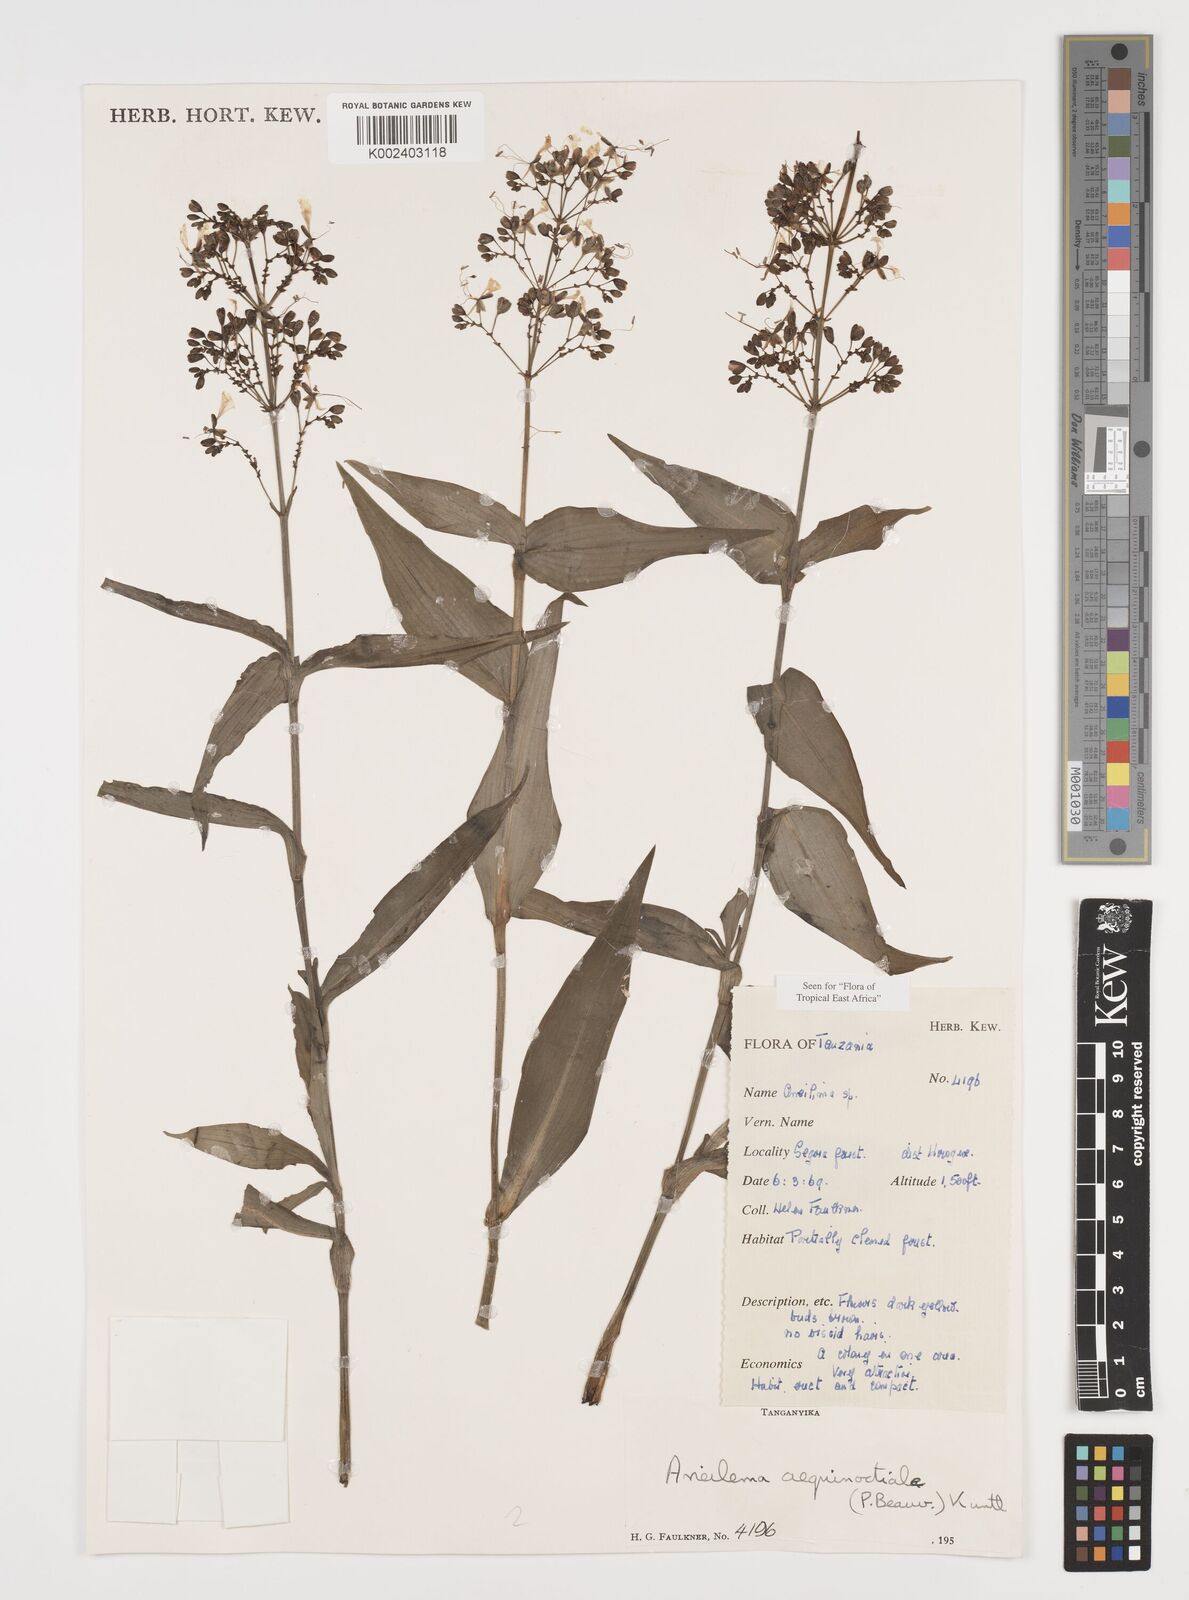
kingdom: Plantae
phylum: Tracheophyta
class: Liliopsida
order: Commelinales
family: Commelinaceae
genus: Aneilema
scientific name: Aneilema aequinoctiale
